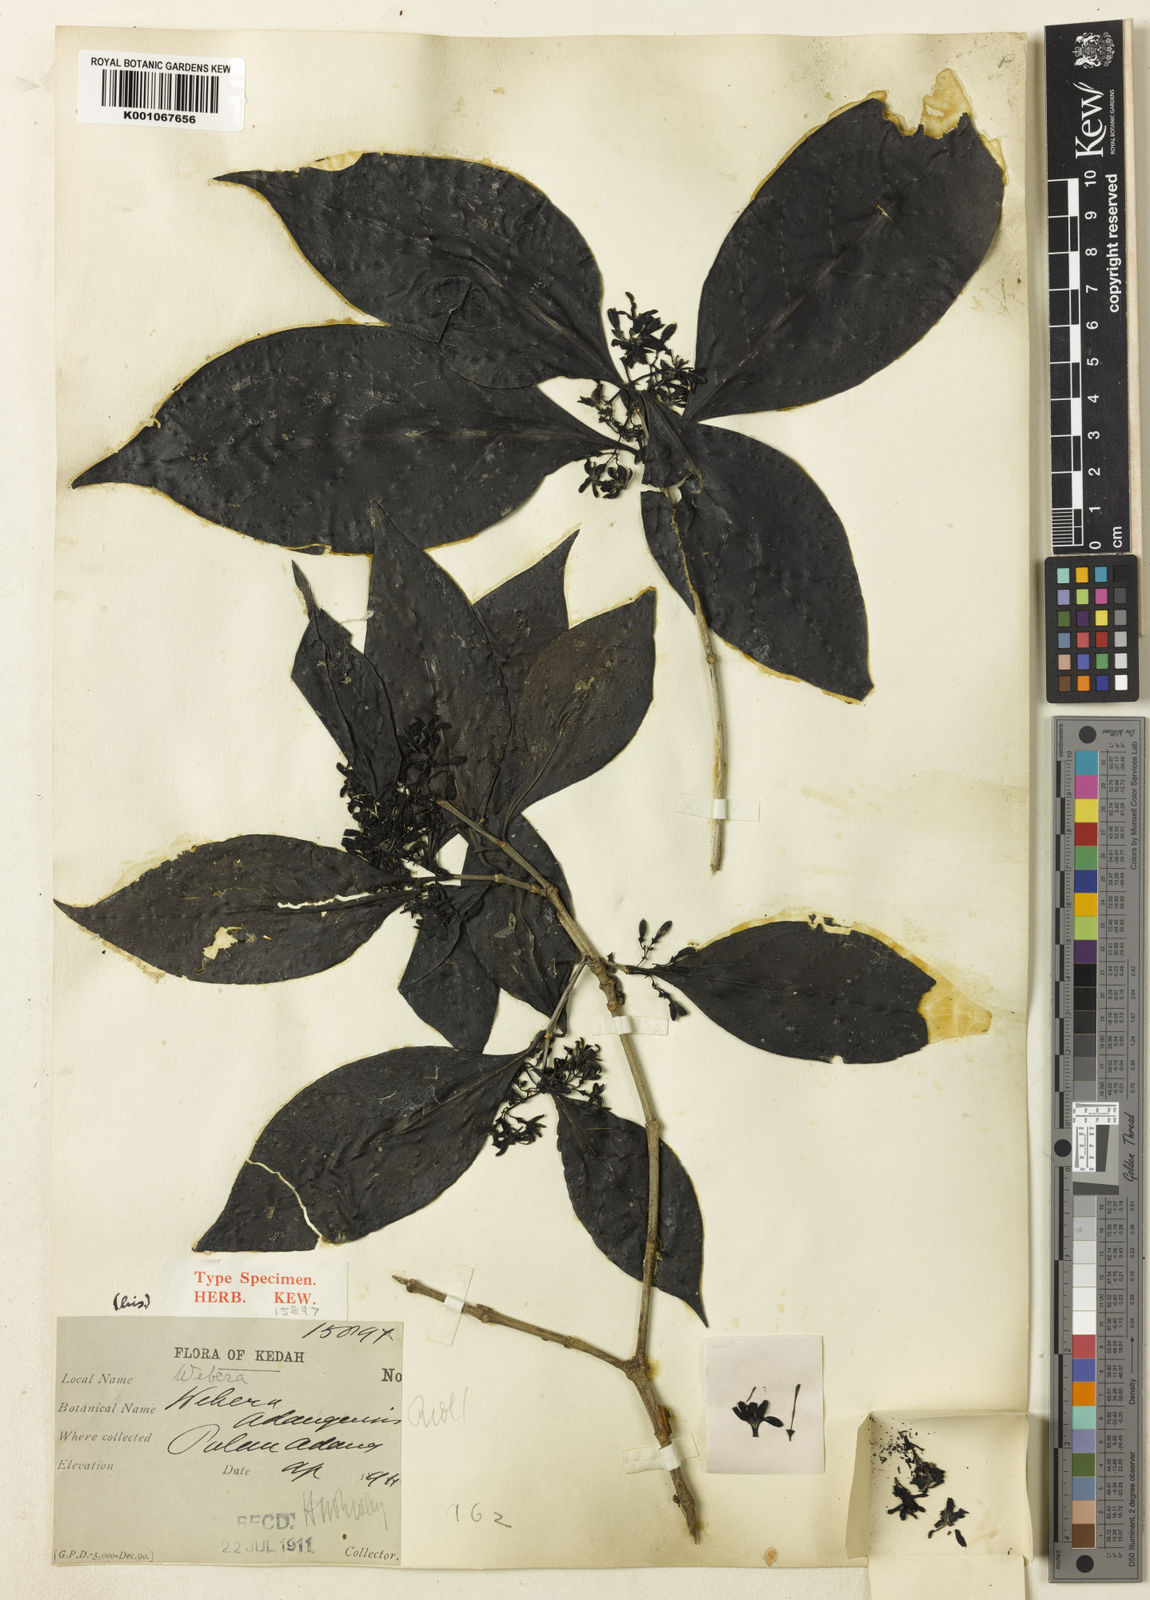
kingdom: Plantae
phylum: Tracheophyta
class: Magnoliopsida
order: Gentianales
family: Rubiaceae
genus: Tarenna
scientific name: Tarenna adangensis
